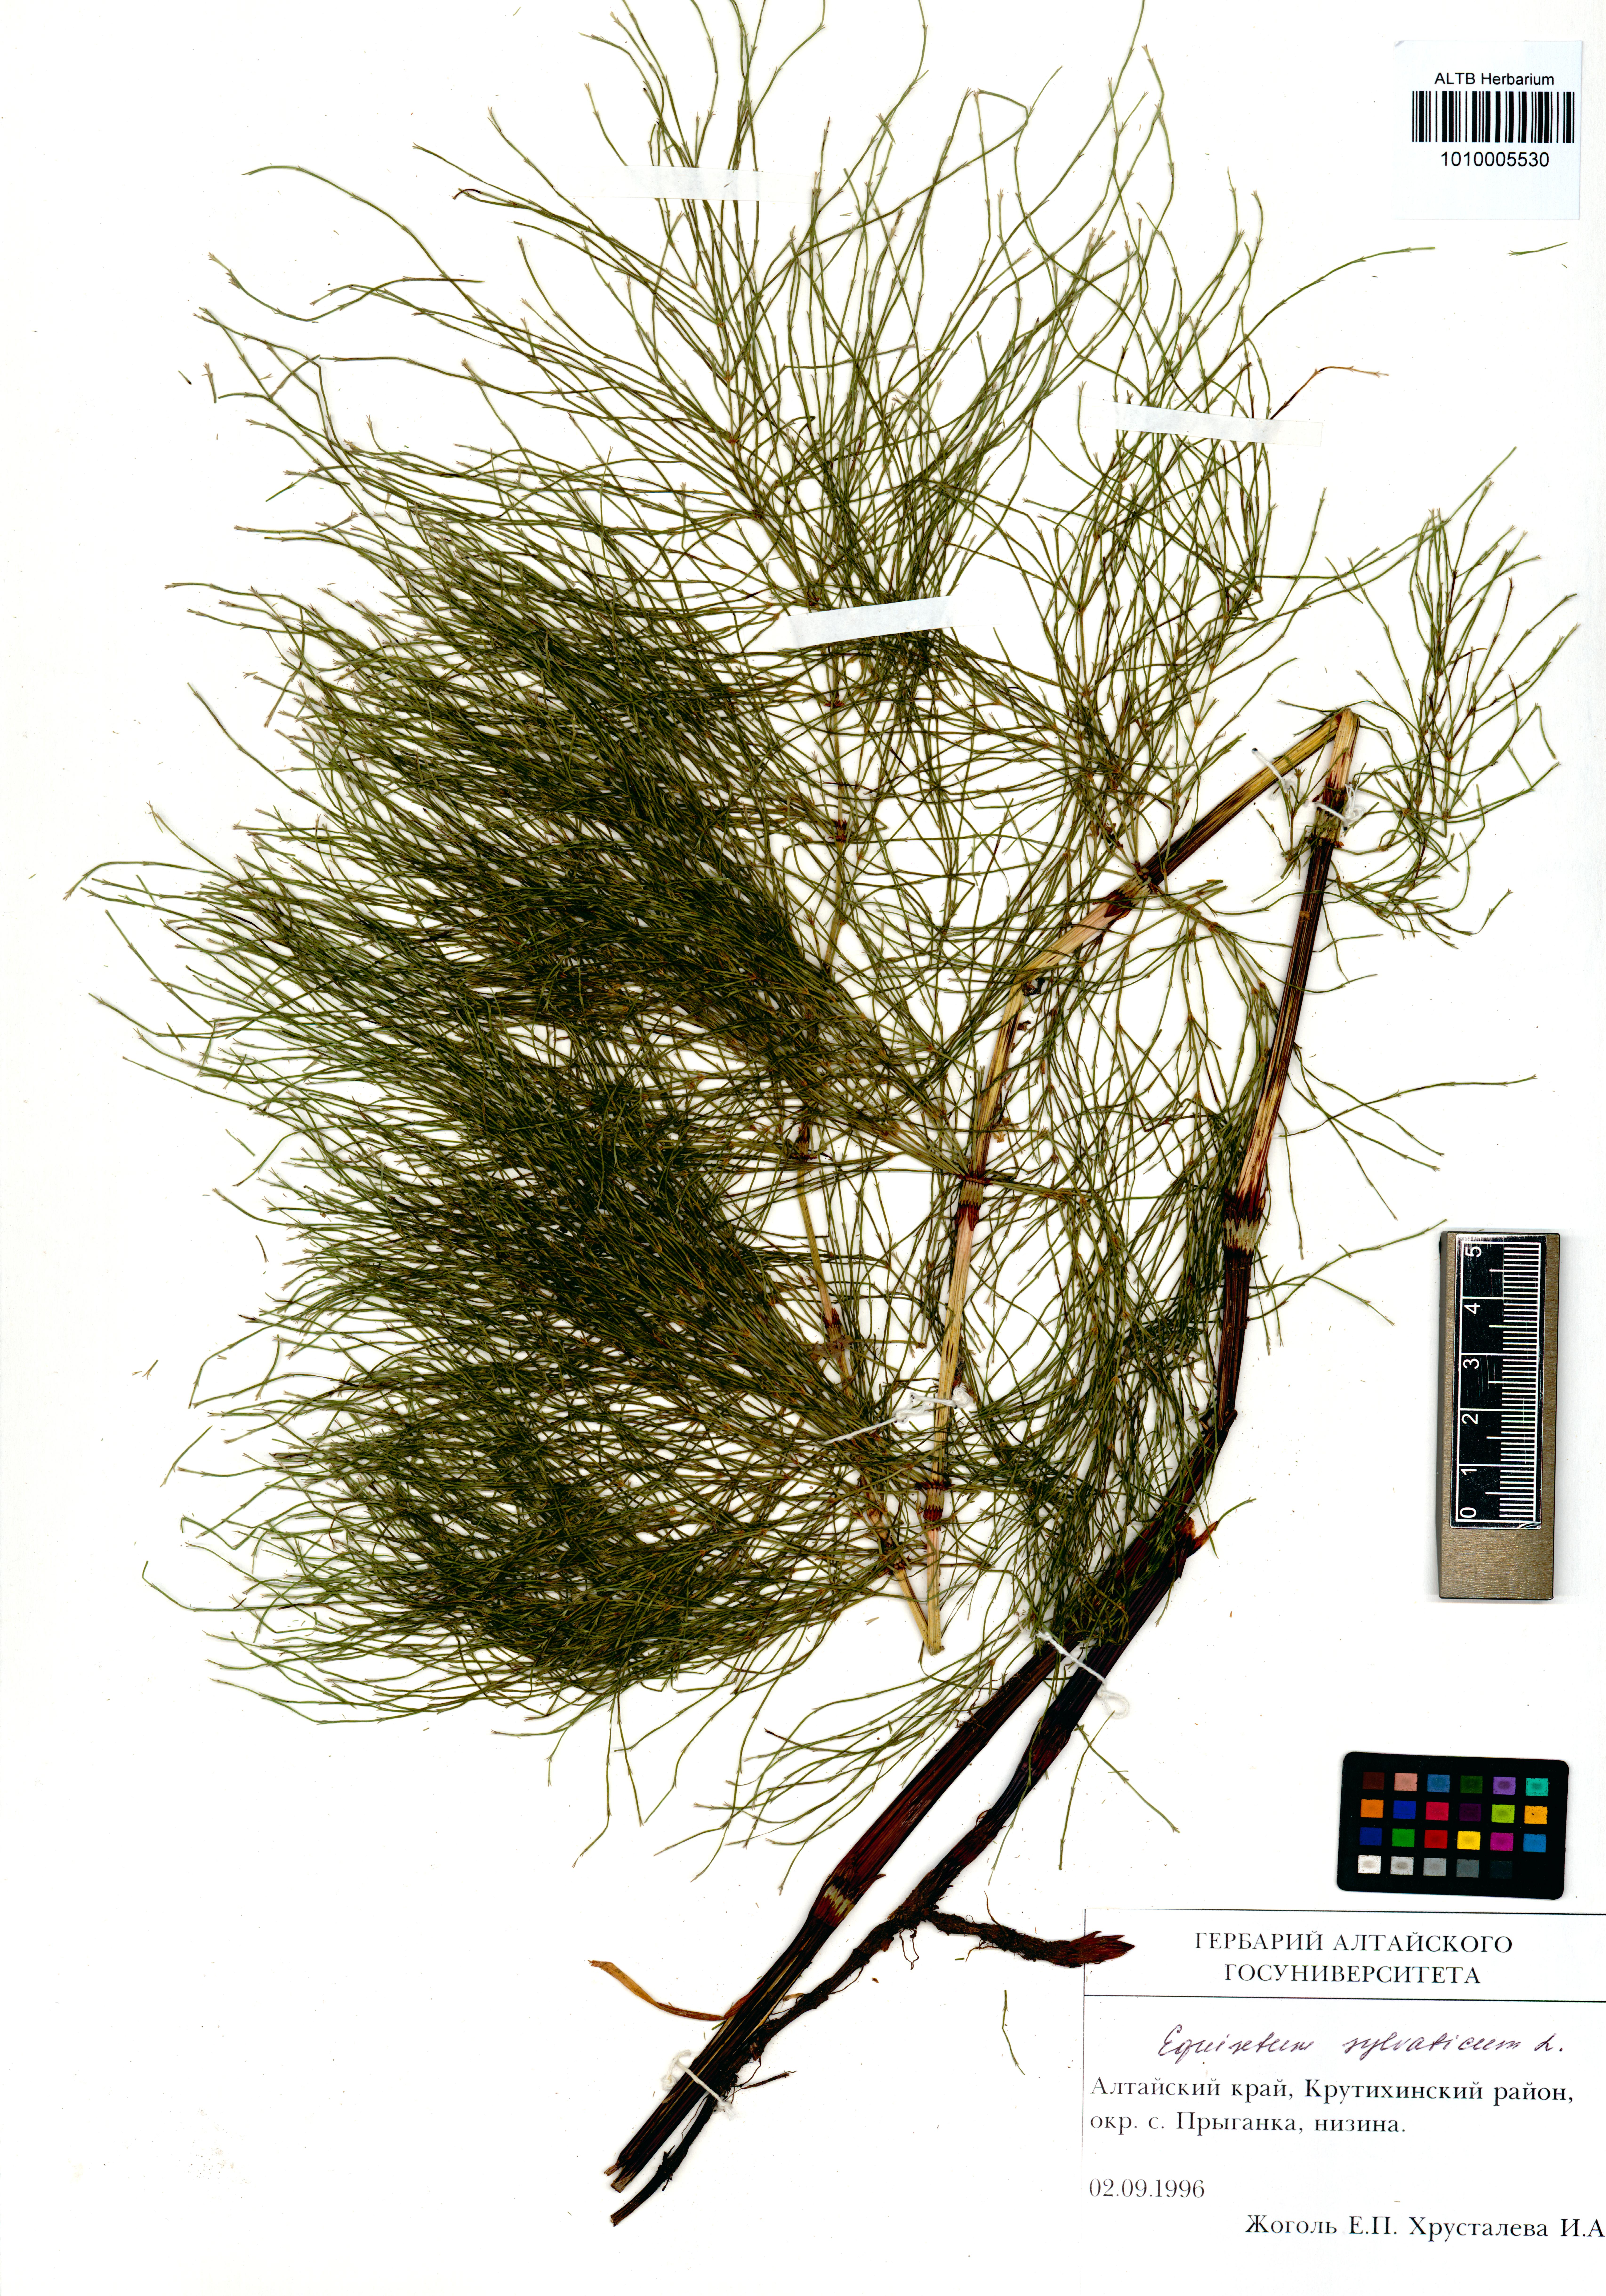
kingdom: Plantae
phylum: Tracheophyta
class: Polypodiopsida
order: Equisetales
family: Equisetaceae
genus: Equisetum
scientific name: Equisetum sylvaticum
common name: Wood horsetail
